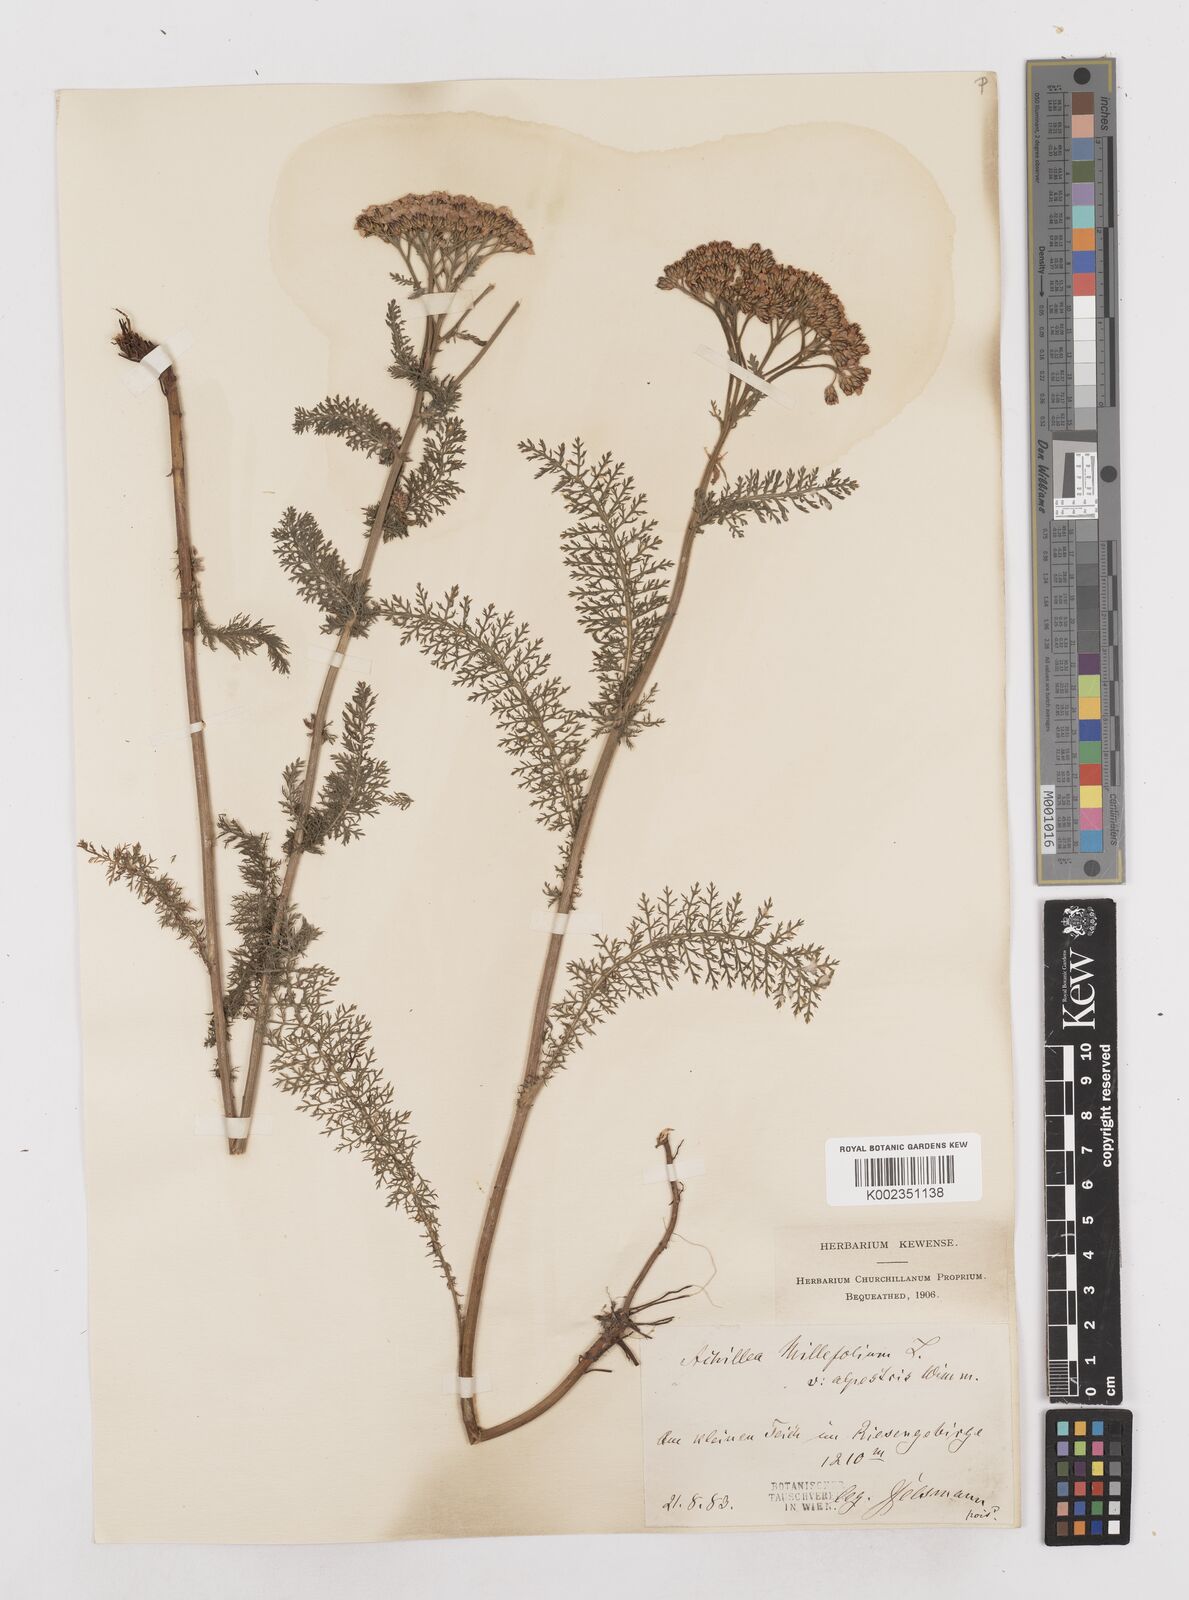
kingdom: Plantae
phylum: Tracheophyta
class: Magnoliopsida
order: Asterales
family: Asteraceae
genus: Achillea
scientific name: Achillea millefolium
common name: Yarrow
